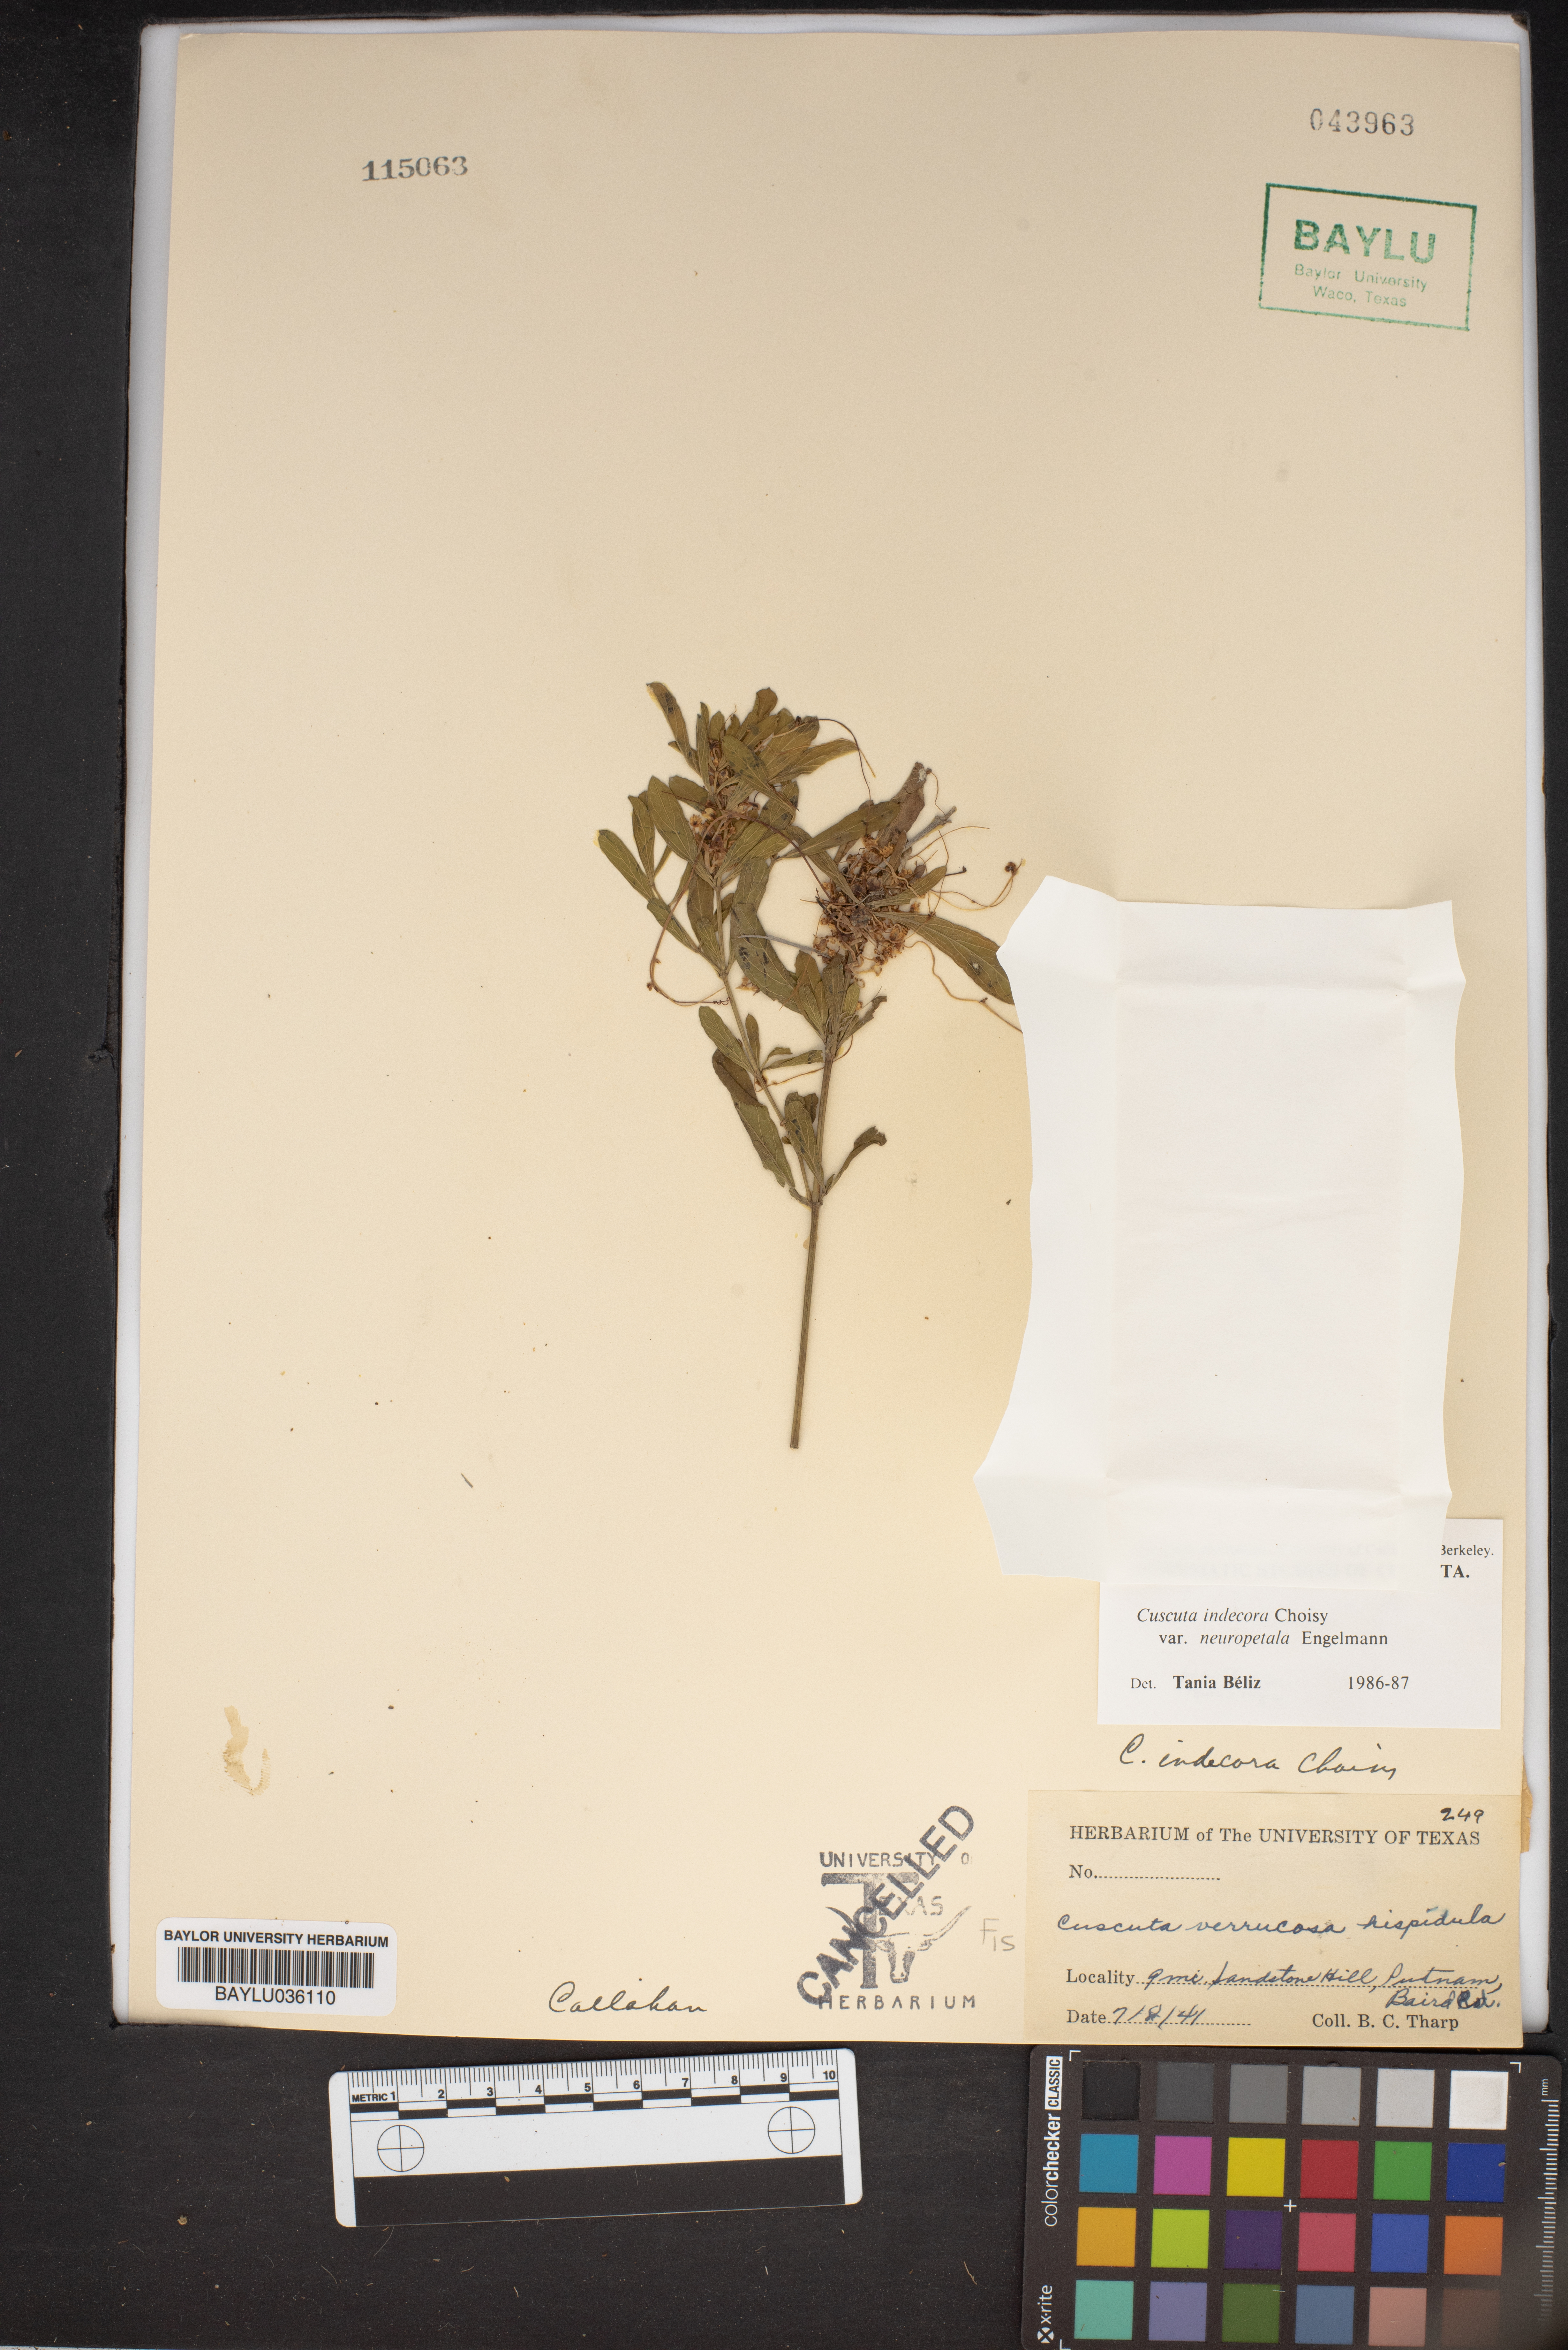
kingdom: Plantae
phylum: Tracheophyta
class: Magnoliopsida
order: Solanales
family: Convolvulaceae
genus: Cuscuta
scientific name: Cuscuta indecora
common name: Large-seed dodder
